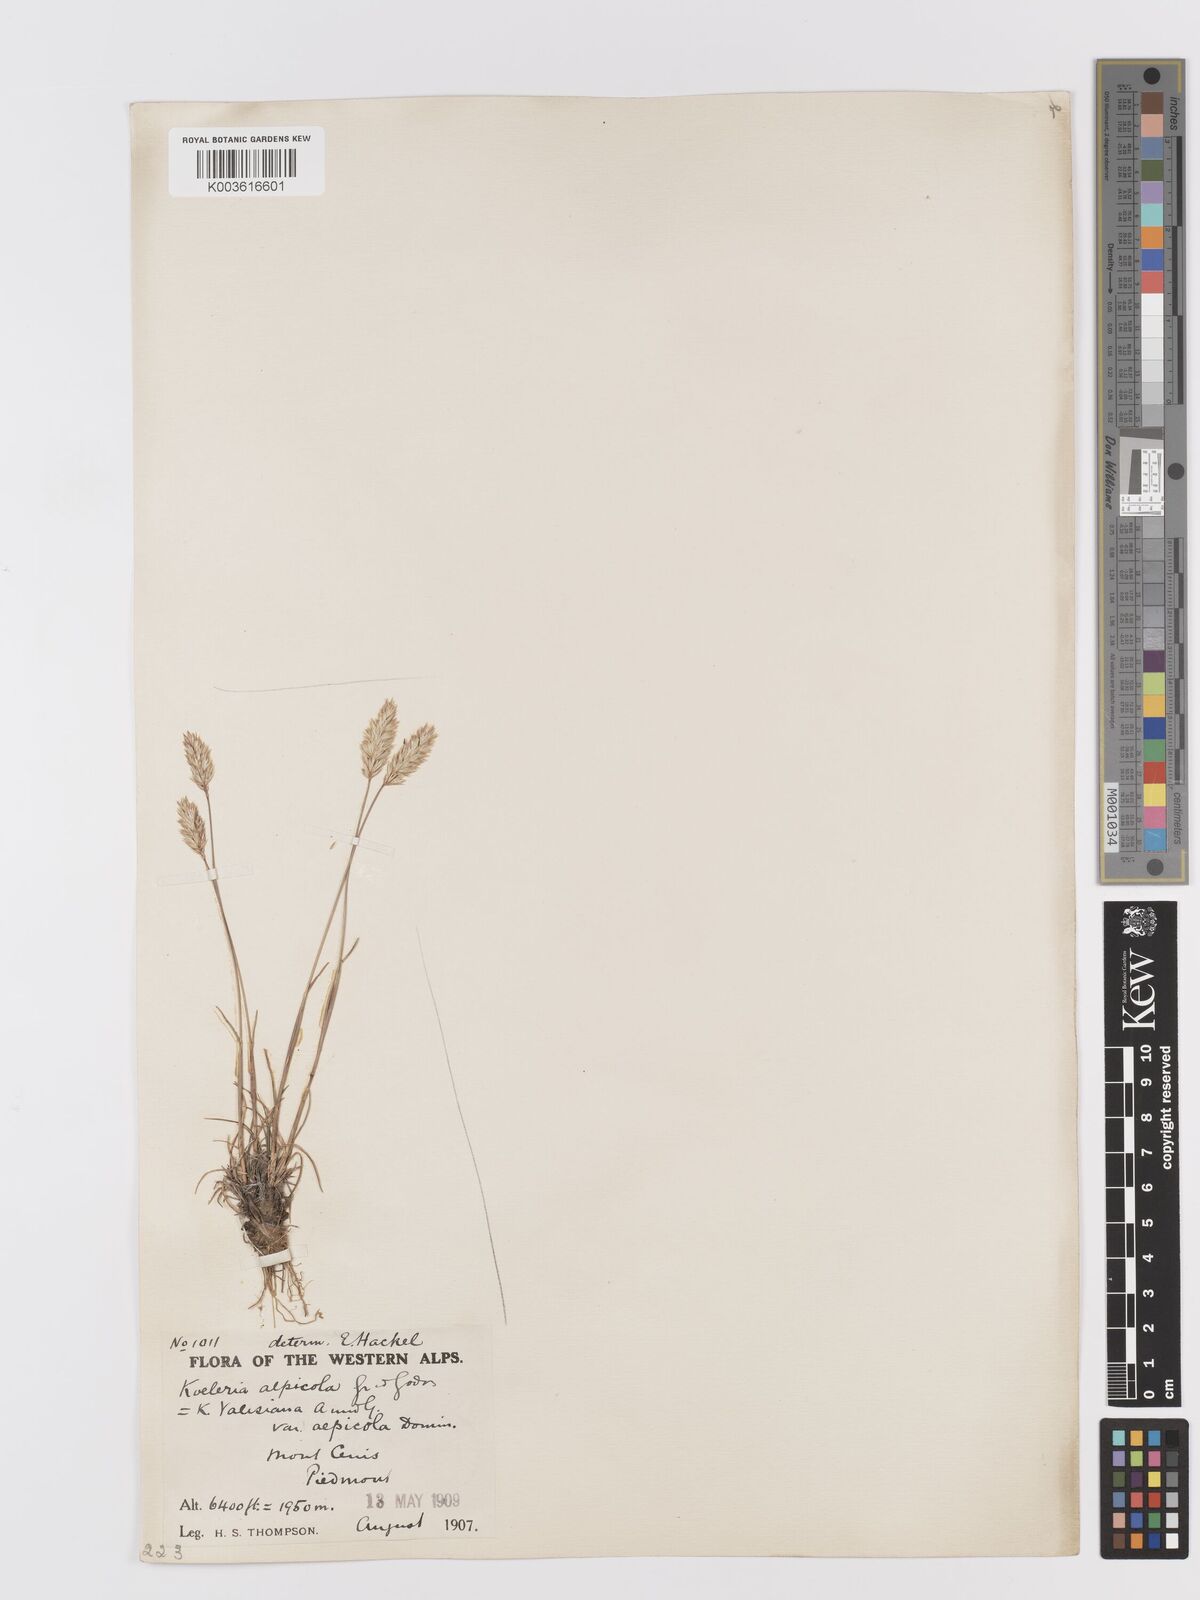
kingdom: Plantae
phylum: Tracheophyta
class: Liliopsida
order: Poales
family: Poaceae
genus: Koeleria
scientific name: Koeleria vallesiana
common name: Somerset hair-grass
